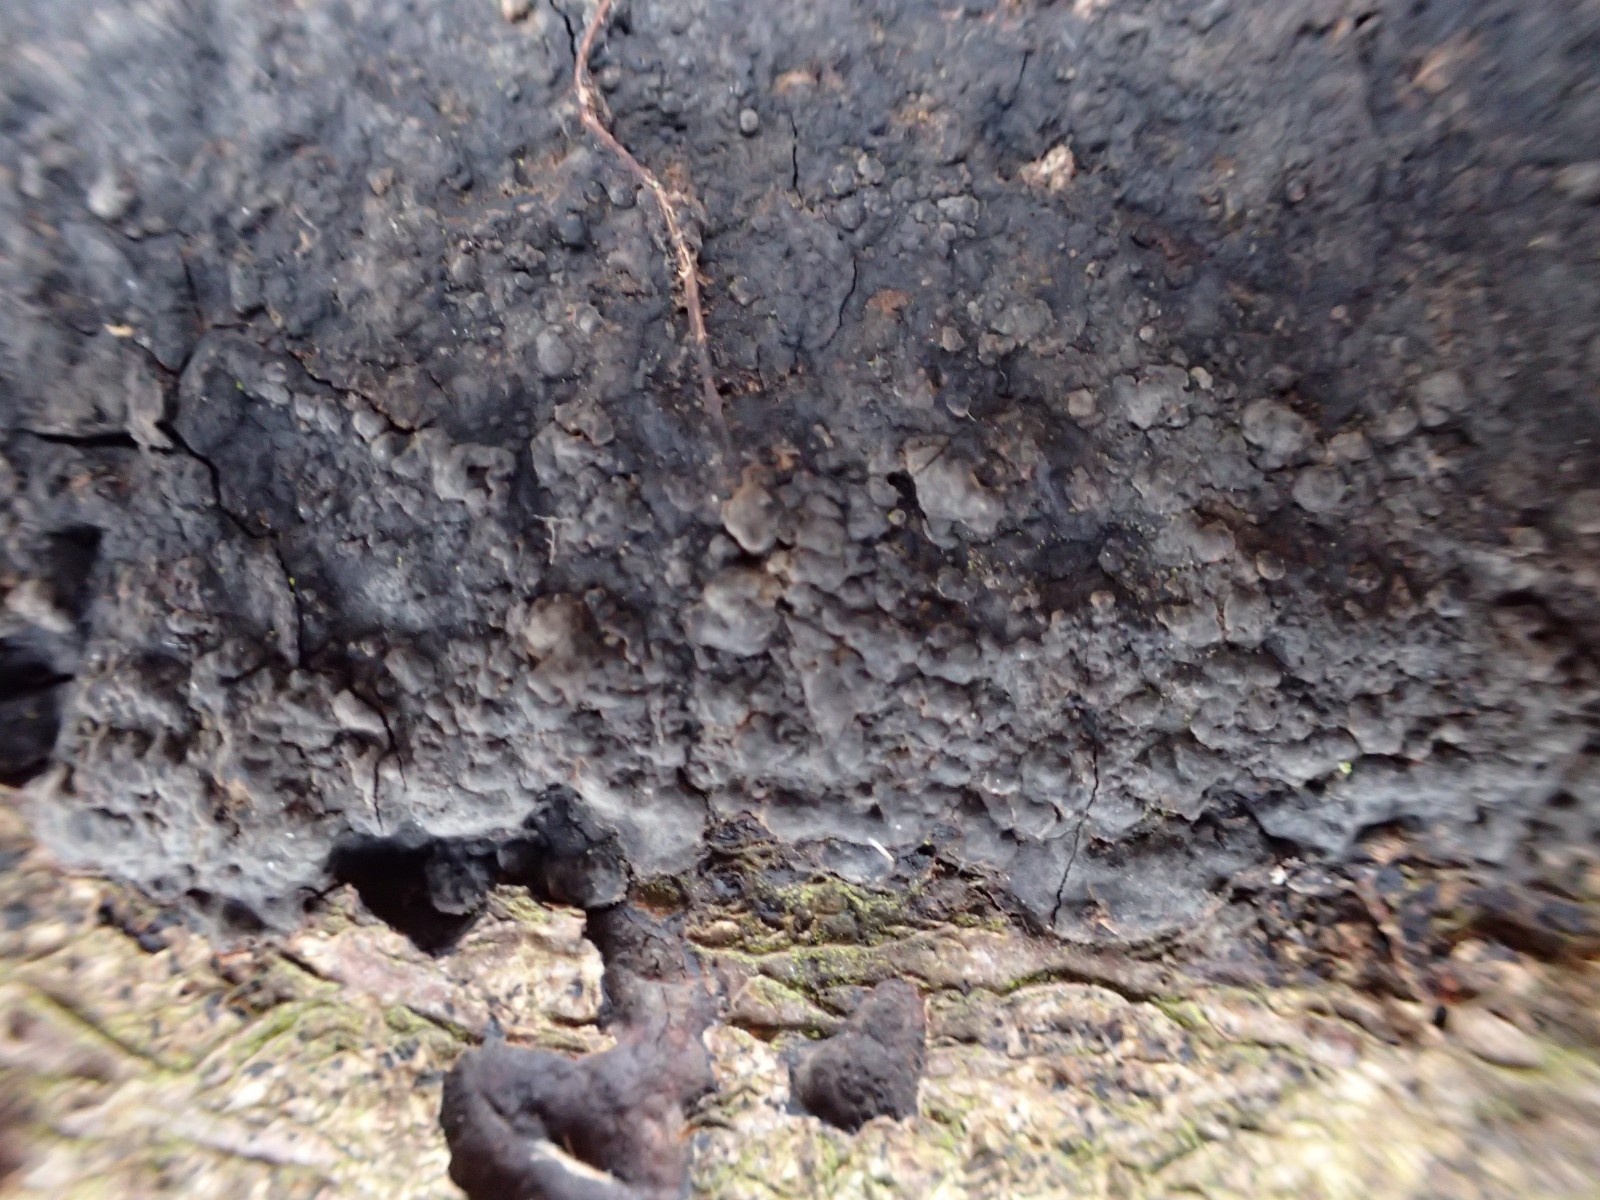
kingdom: Fungi
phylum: Basidiomycota
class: Agaricomycetes
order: Russulales
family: Peniophoraceae
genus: Peniophora
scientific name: Peniophora rufomarginata
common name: linde-voksskind
